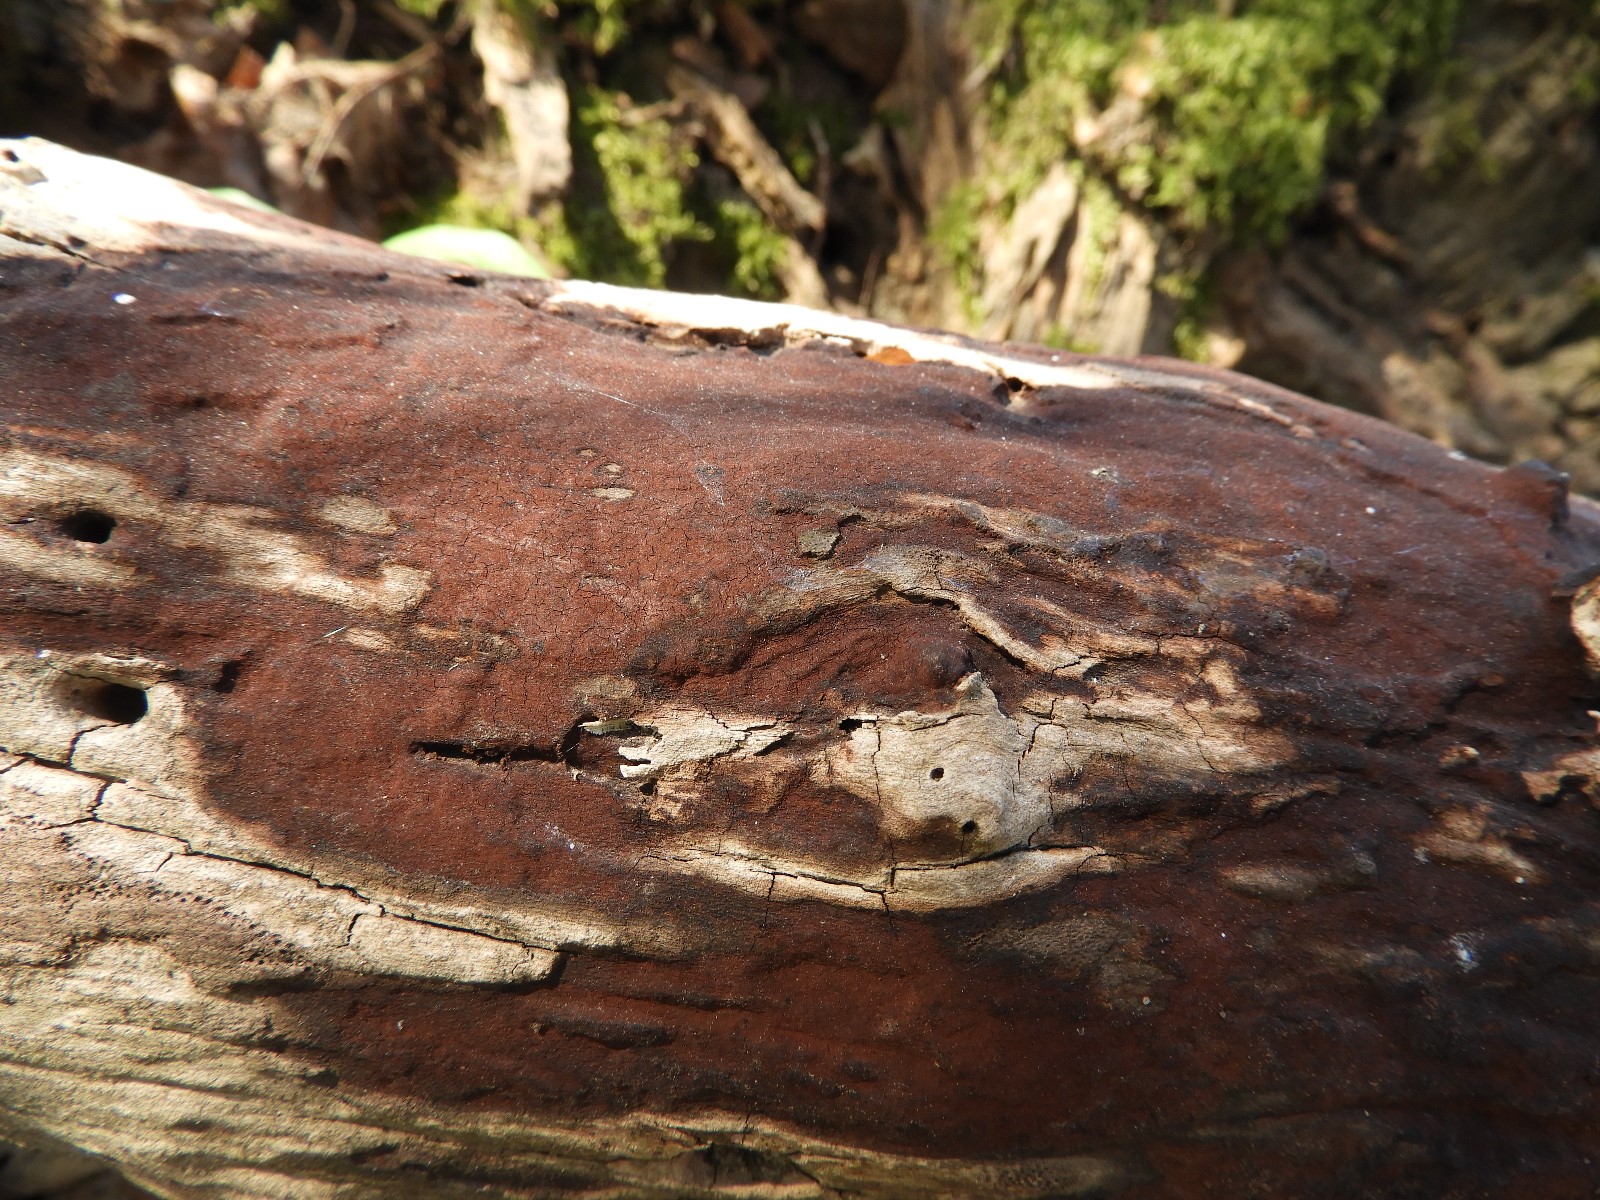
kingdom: Fungi
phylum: Ascomycota
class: Sordariomycetes
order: Xylariales
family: Hypoxylaceae
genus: Hypoxylon
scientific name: Hypoxylon
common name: kulbær
